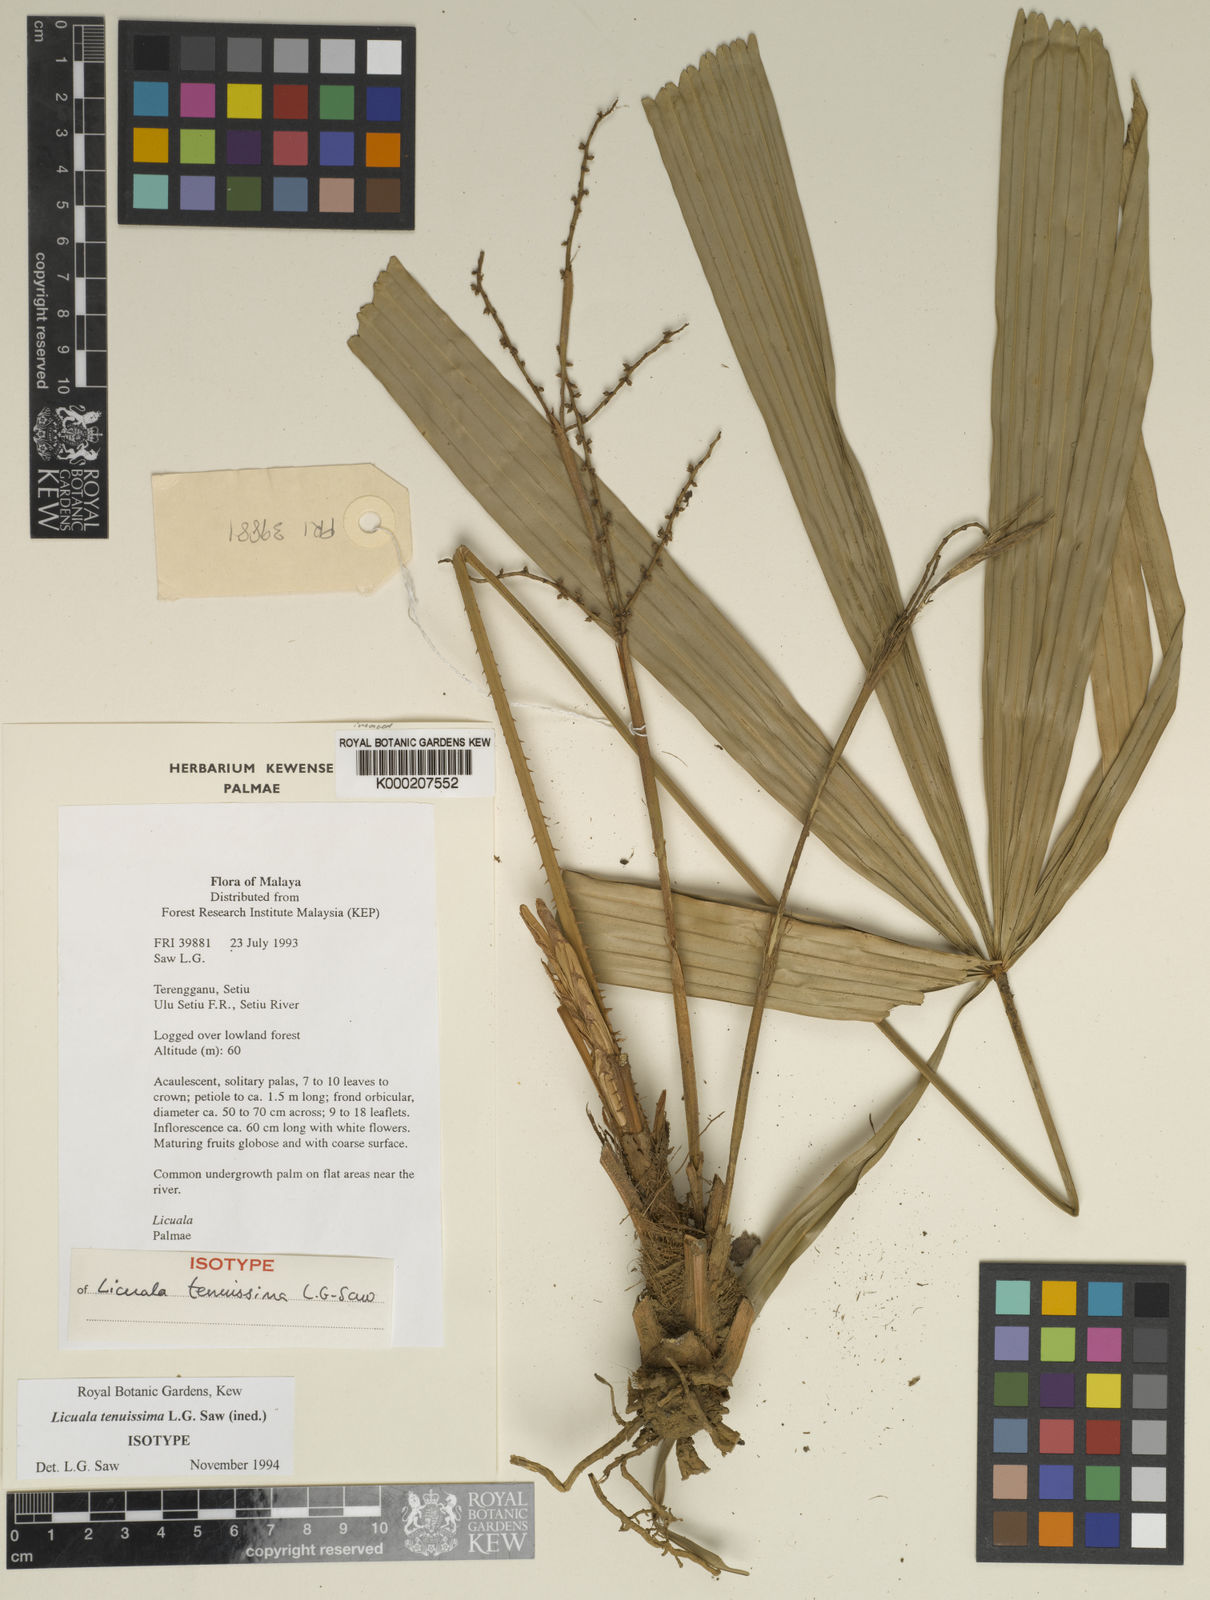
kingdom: Plantae
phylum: Tracheophyta
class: Liliopsida
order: Arecales
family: Arecaceae
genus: Licuala
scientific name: Licuala tenuissima
